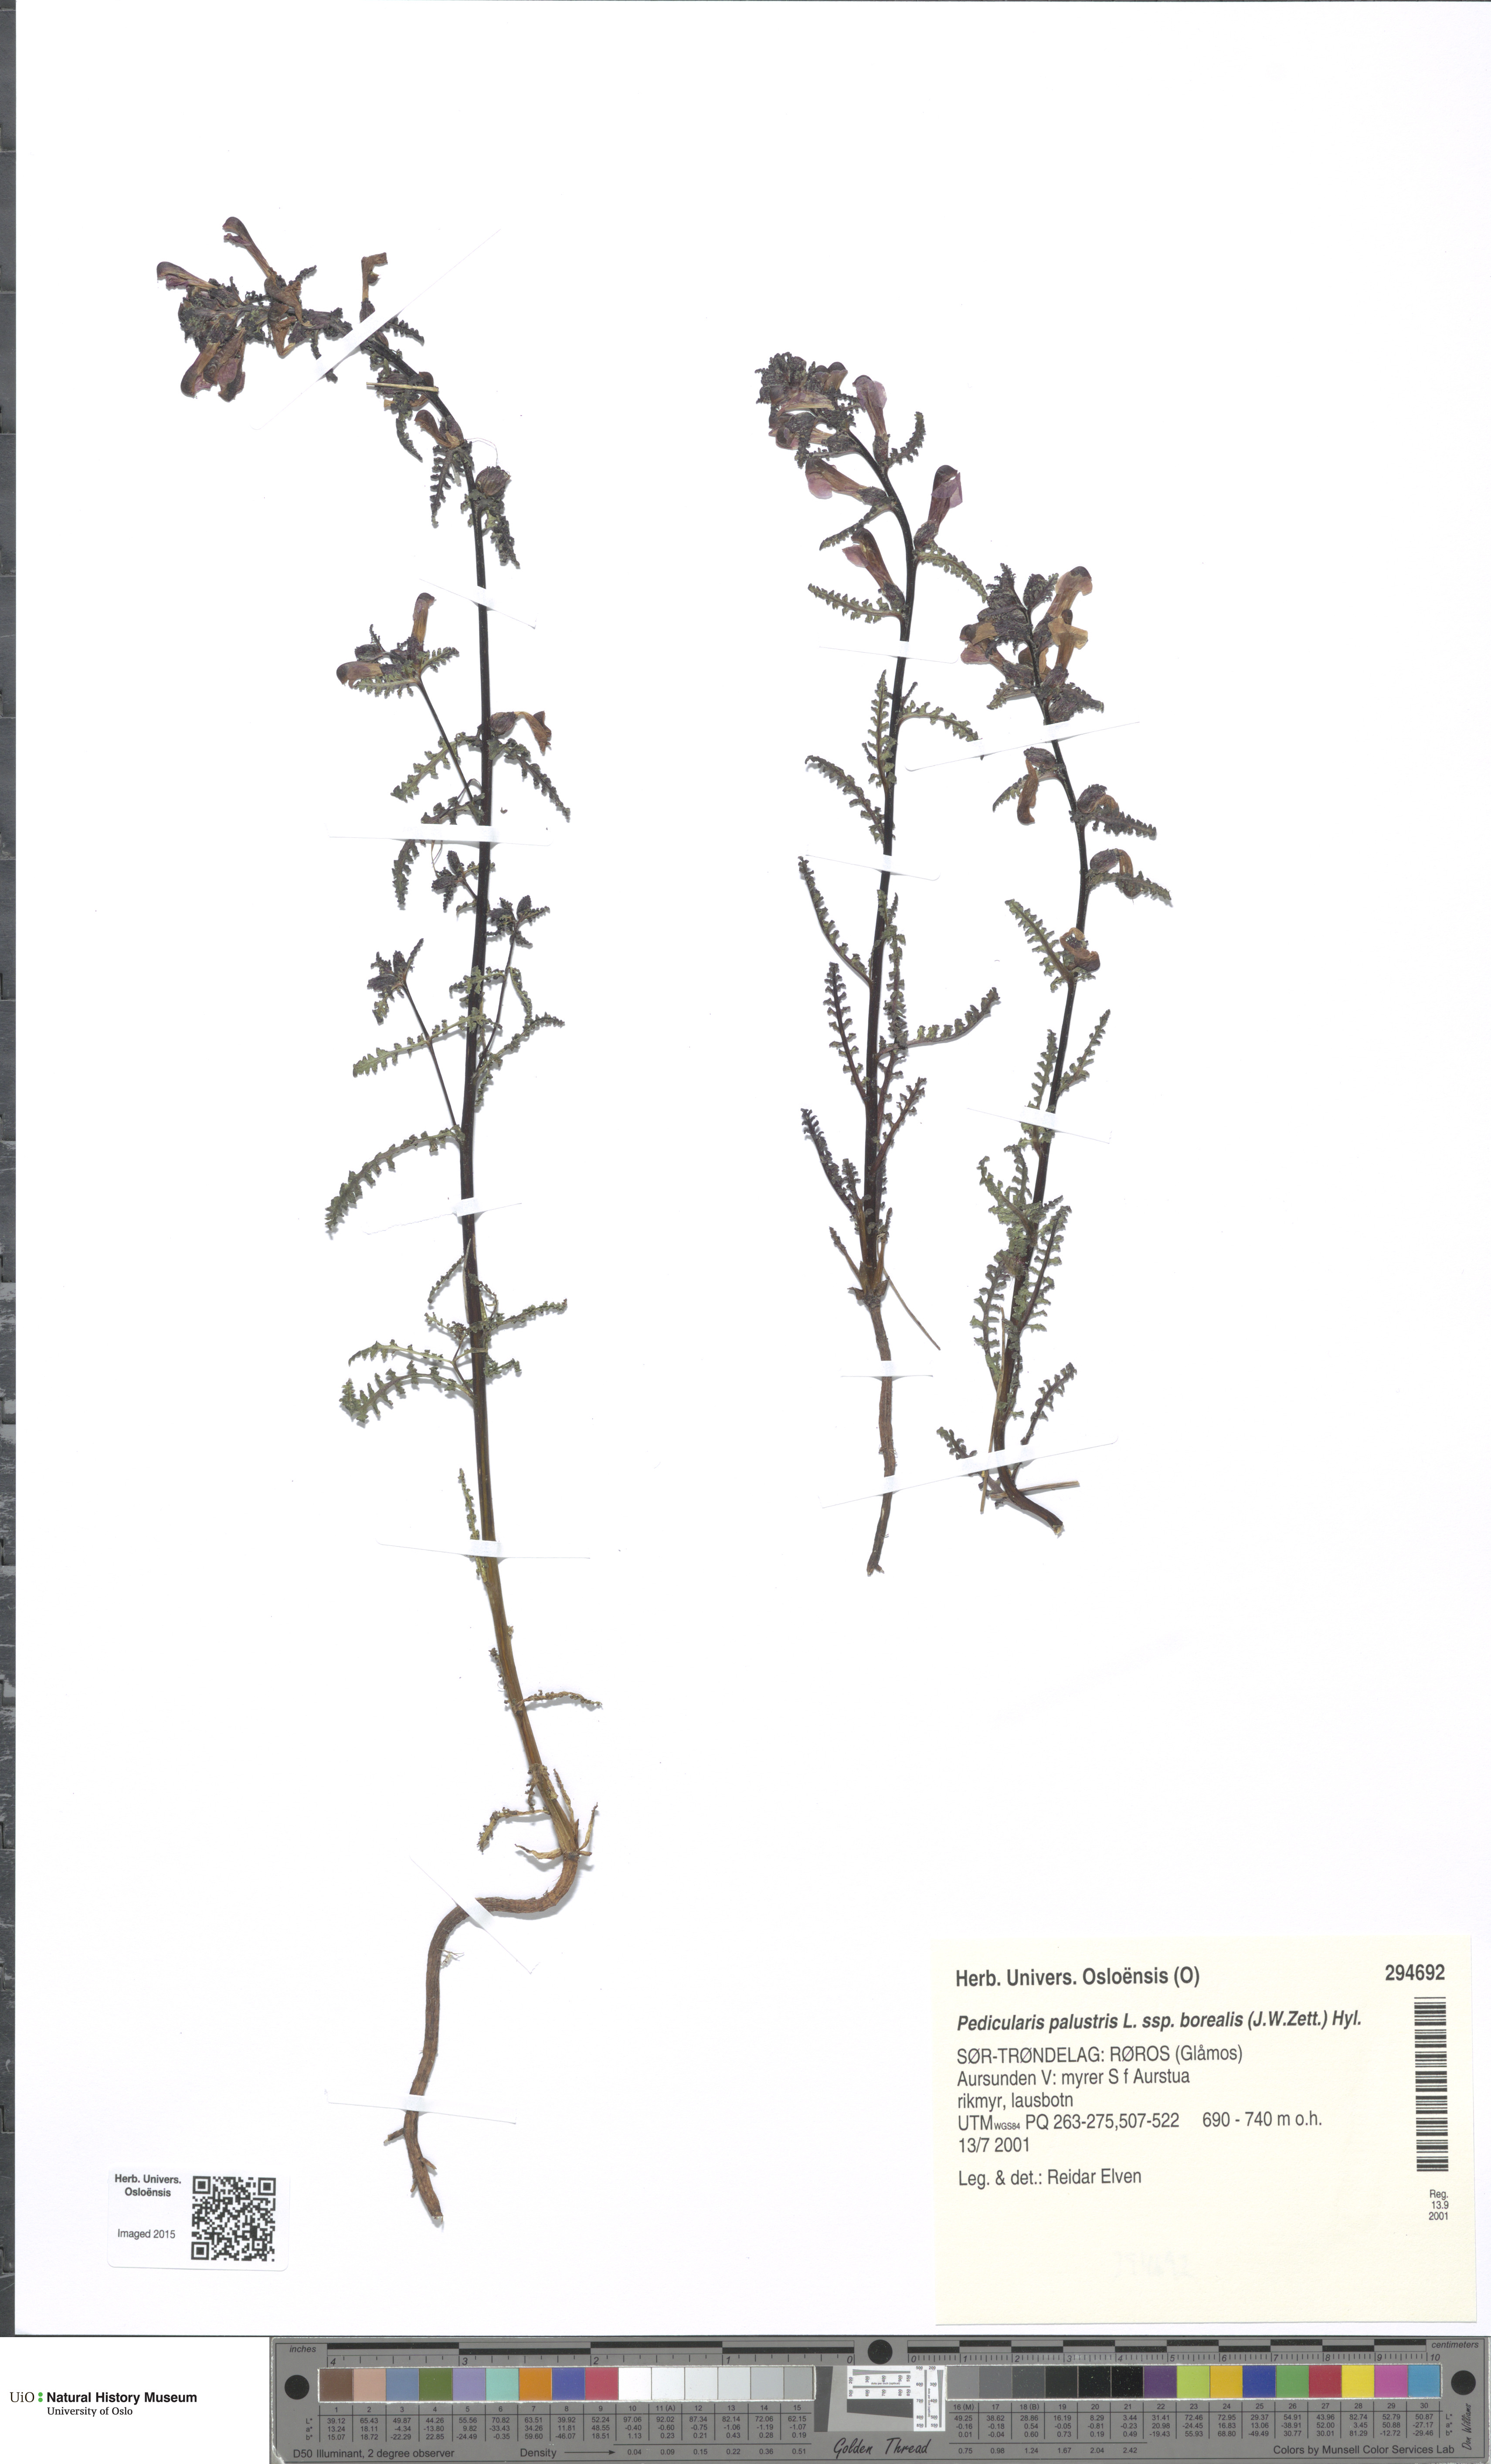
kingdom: Plantae
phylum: Tracheophyta
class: Magnoliopsida
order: Lamiales
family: Orobanchaceae
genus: Pedicularis
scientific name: Pedicularis palustris
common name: Marsh lousewort
